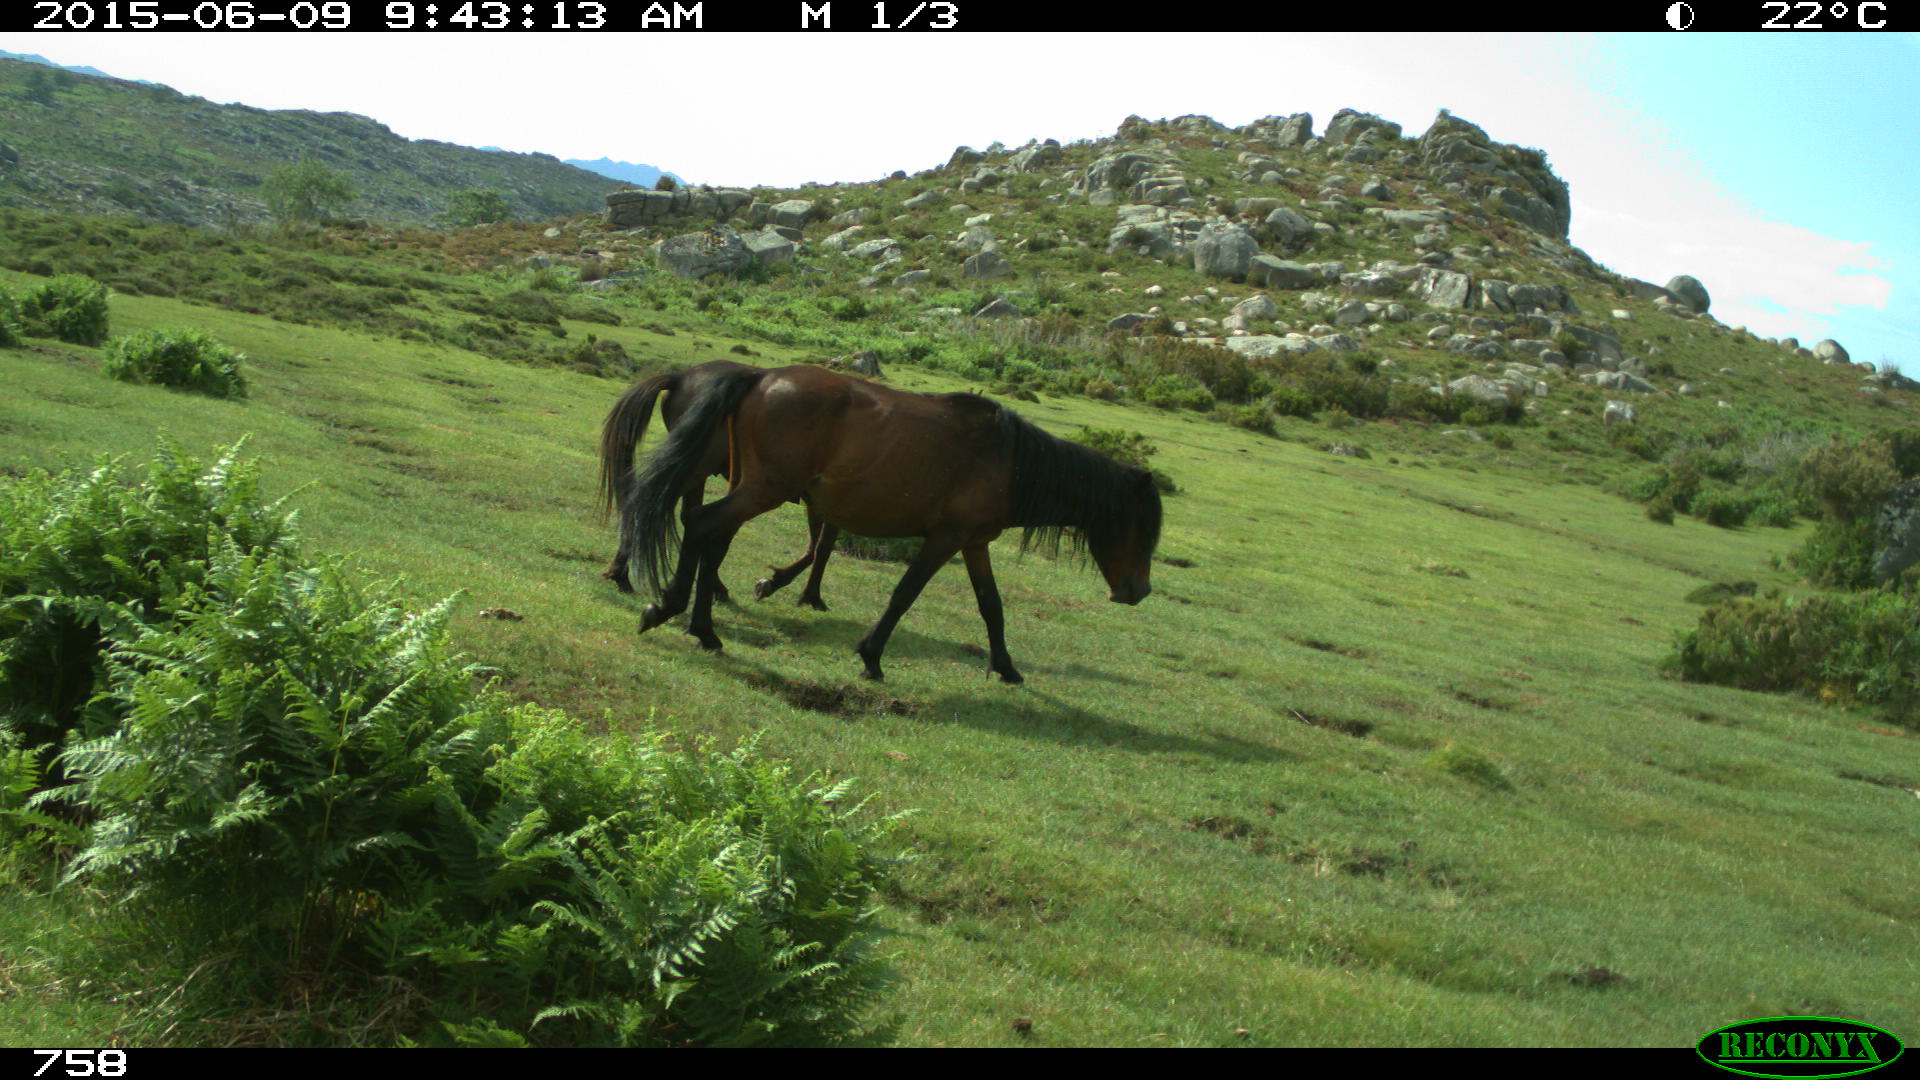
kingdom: Animalia
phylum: Chordata
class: Mammalia
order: Perissodactyla
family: Equidae
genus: Equus
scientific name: Equus caballus
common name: Horse
